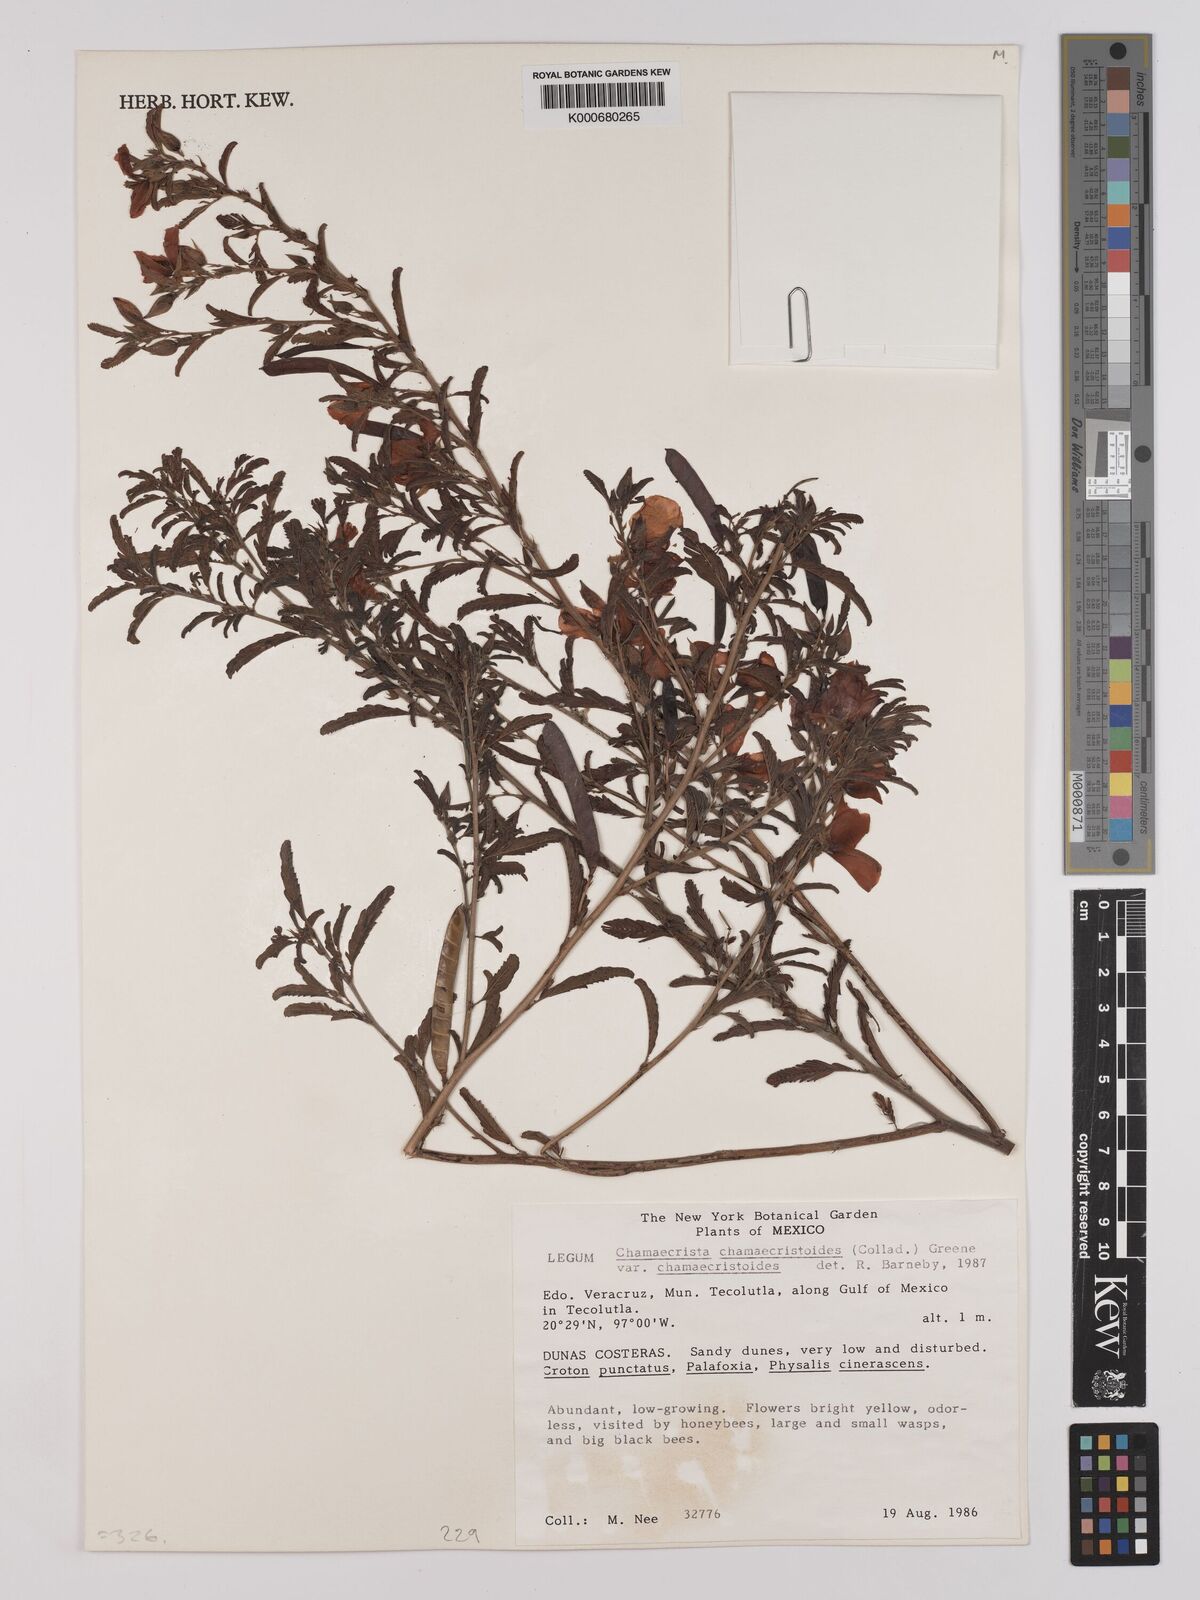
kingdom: Plantae
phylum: Tracheophyta
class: Magnoliopsida
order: Fabales
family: Fabaceae
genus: Chamaecrista
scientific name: Chamaecrista chamaecristoides
